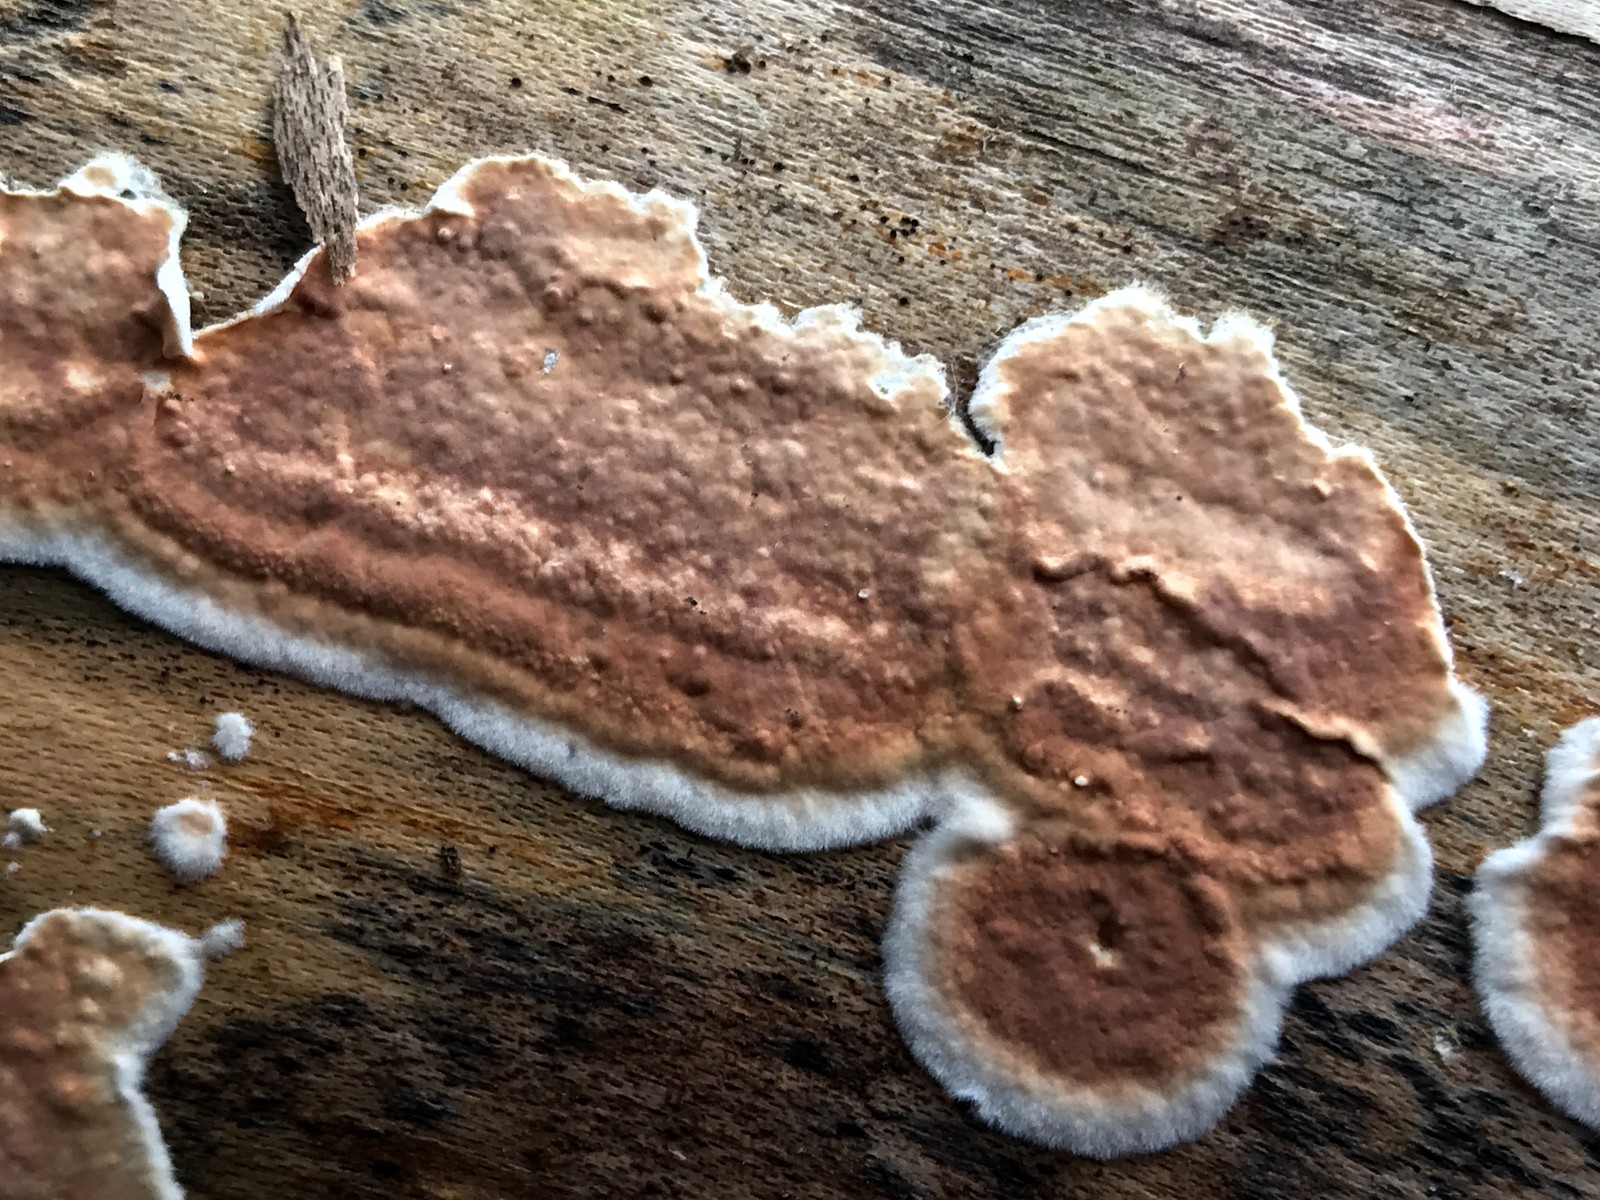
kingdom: Fungi
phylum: Basidiomycota
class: Agaricomycetes
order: Russulales
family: Peniophoraceae
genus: Peniophora
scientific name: Peniophora incarnata
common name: laksefarvet voksskind
